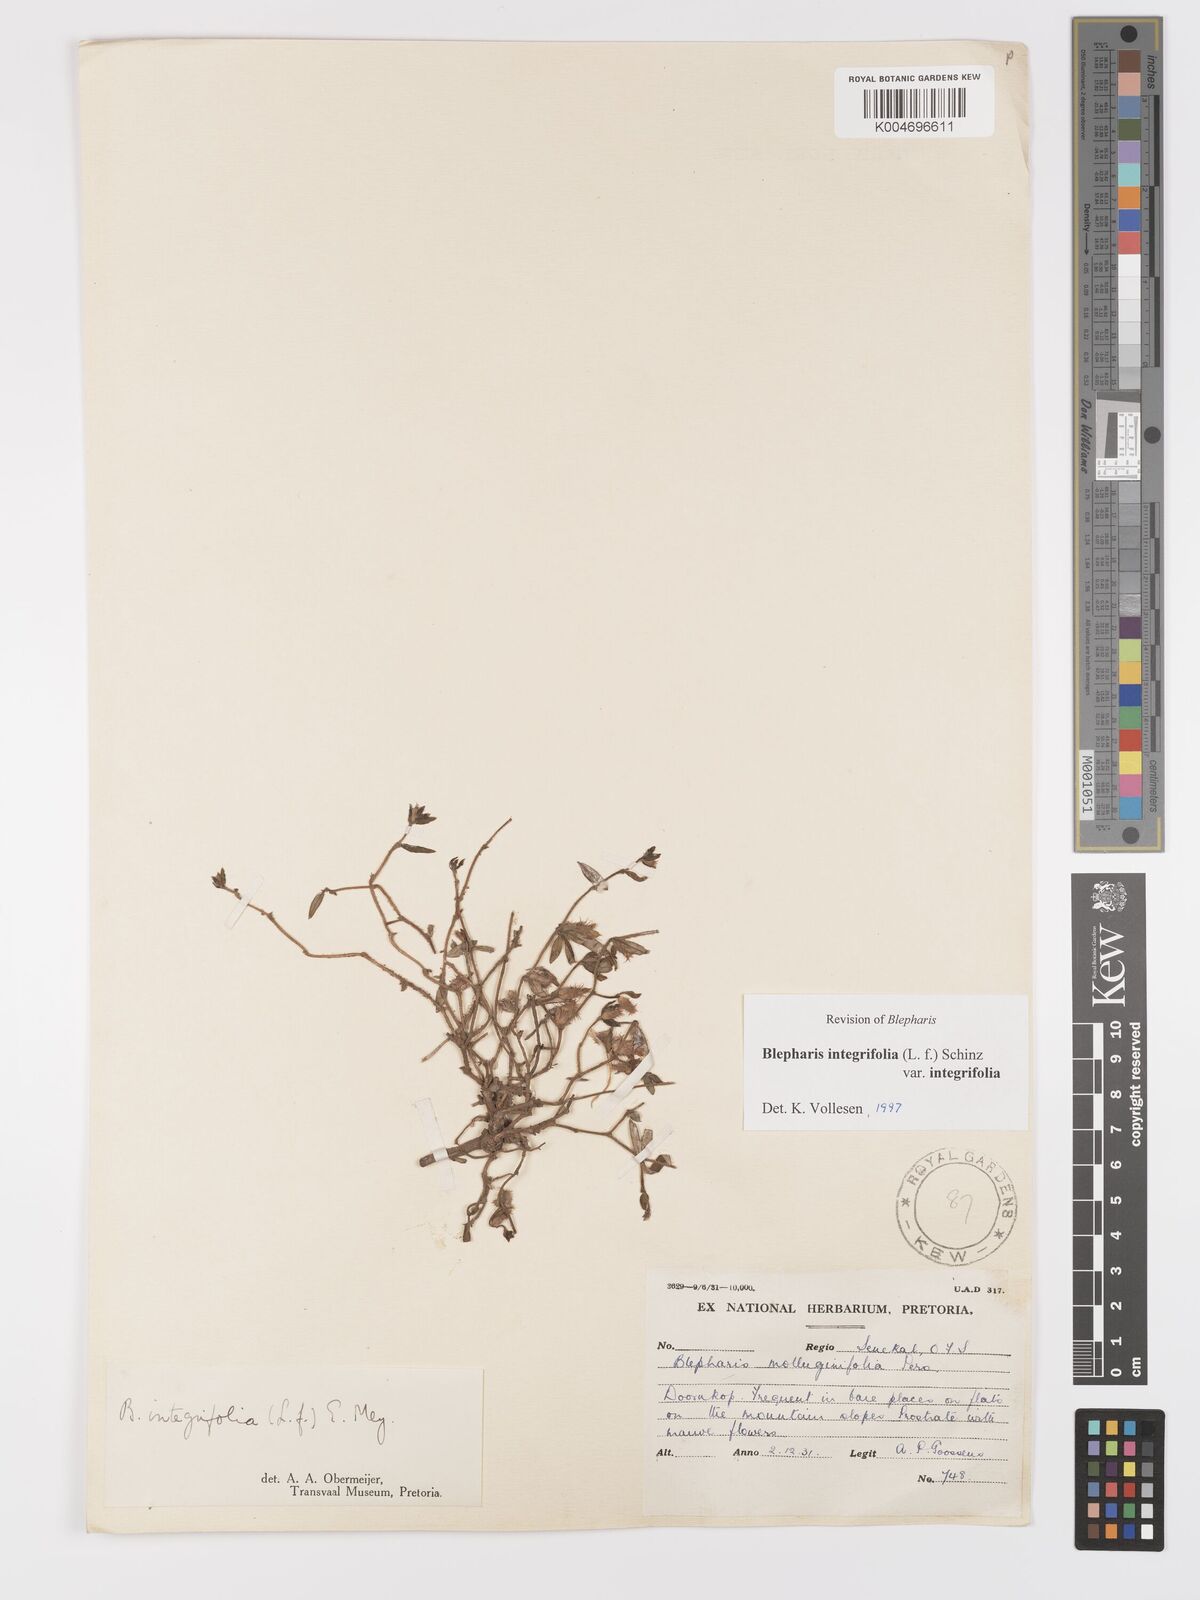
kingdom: Plantae
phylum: Tracheophyta
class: Magnoliopsida
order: Lamiales
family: Acanthaceae
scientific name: Acanthaceae
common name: Acanthaceae
